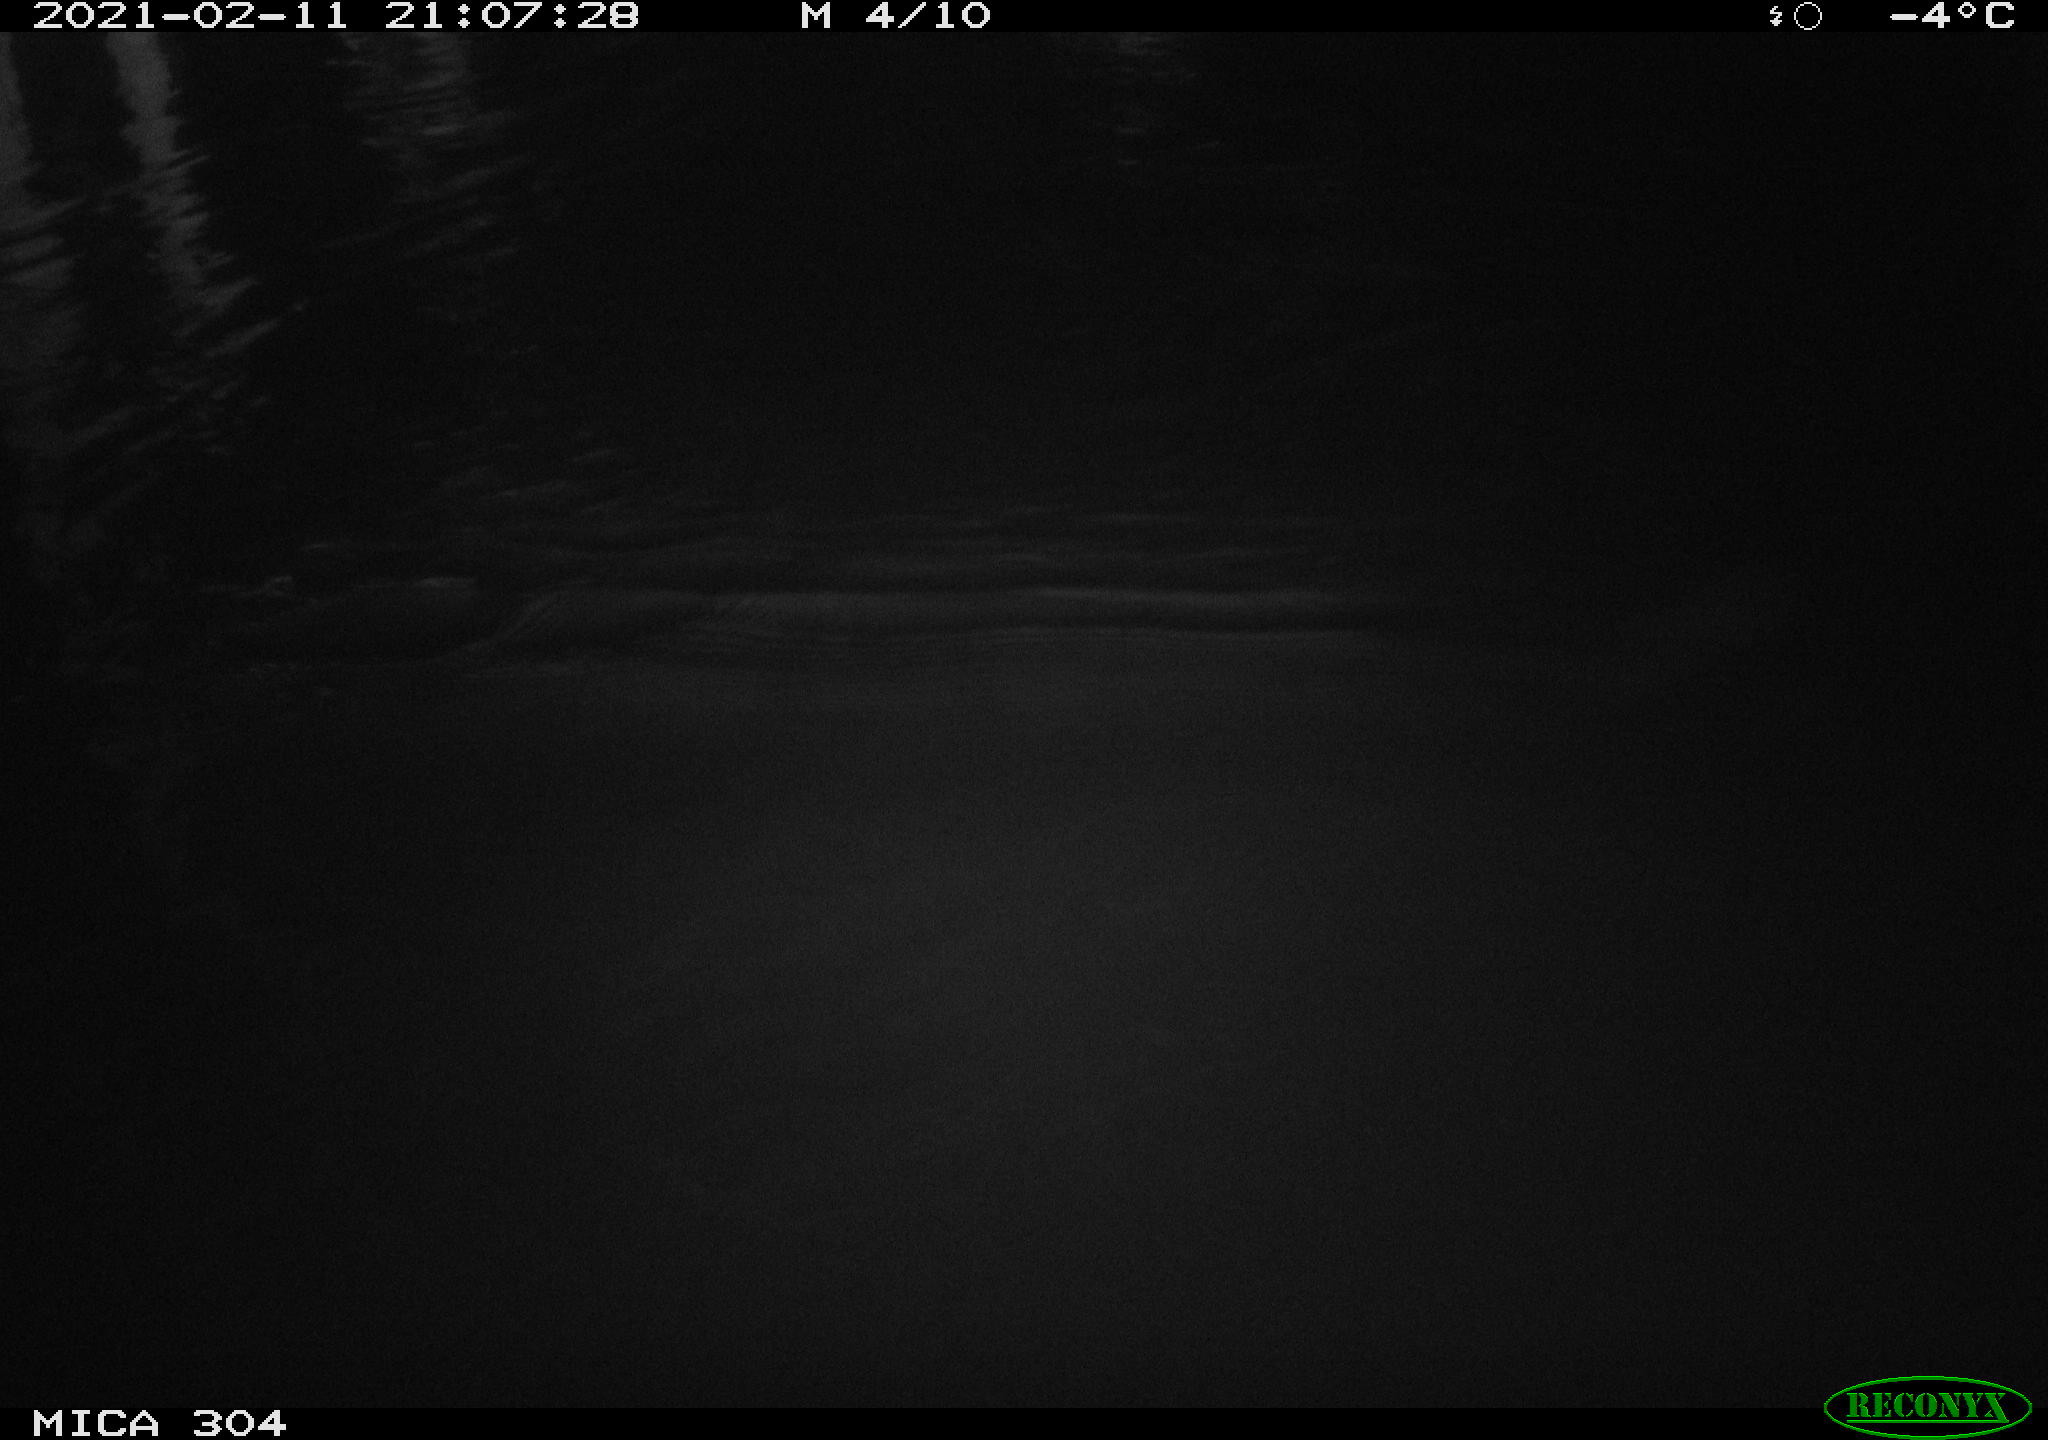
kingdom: Animalia
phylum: Chordata
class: Aves
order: Anseriformes
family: Anatidae
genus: Anas
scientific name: Anas platyrhynchos
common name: Mallard
